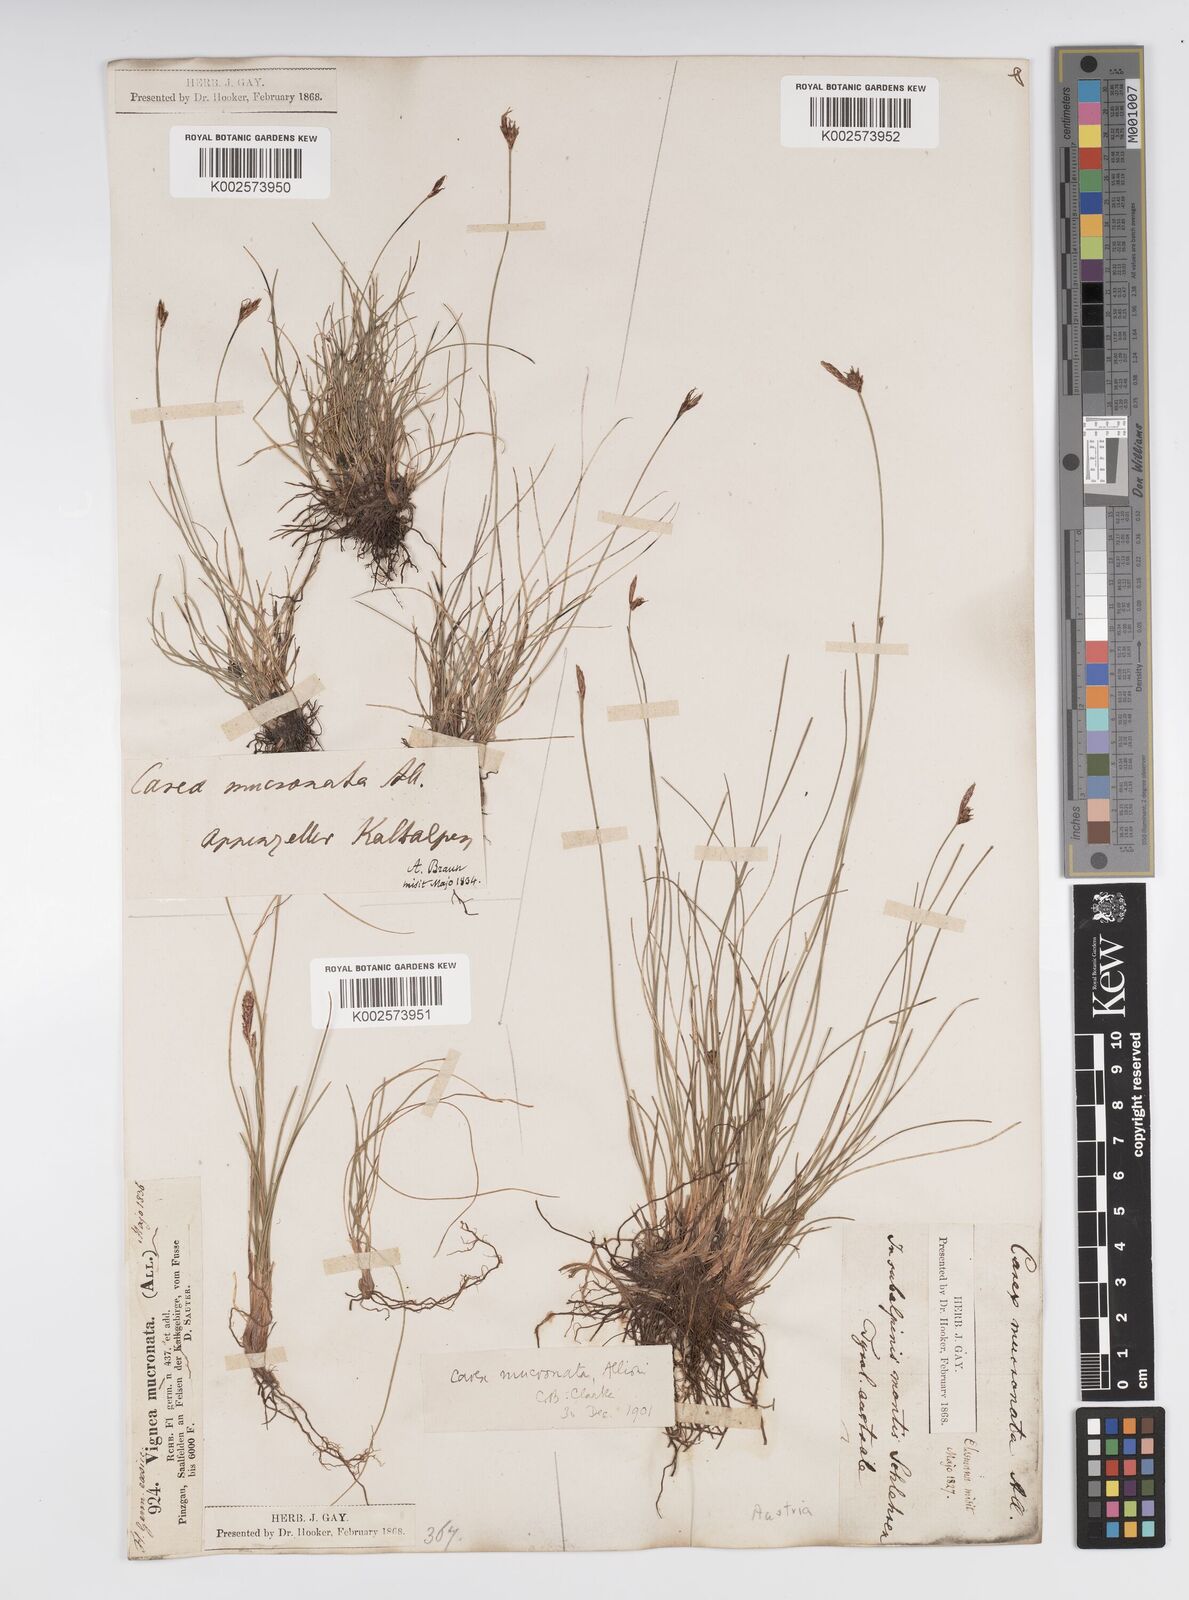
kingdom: Plantae
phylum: Tracheophyta
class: Liliopsida
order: Poales
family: Cyperaceae
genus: Carex
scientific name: Carex mucronata
